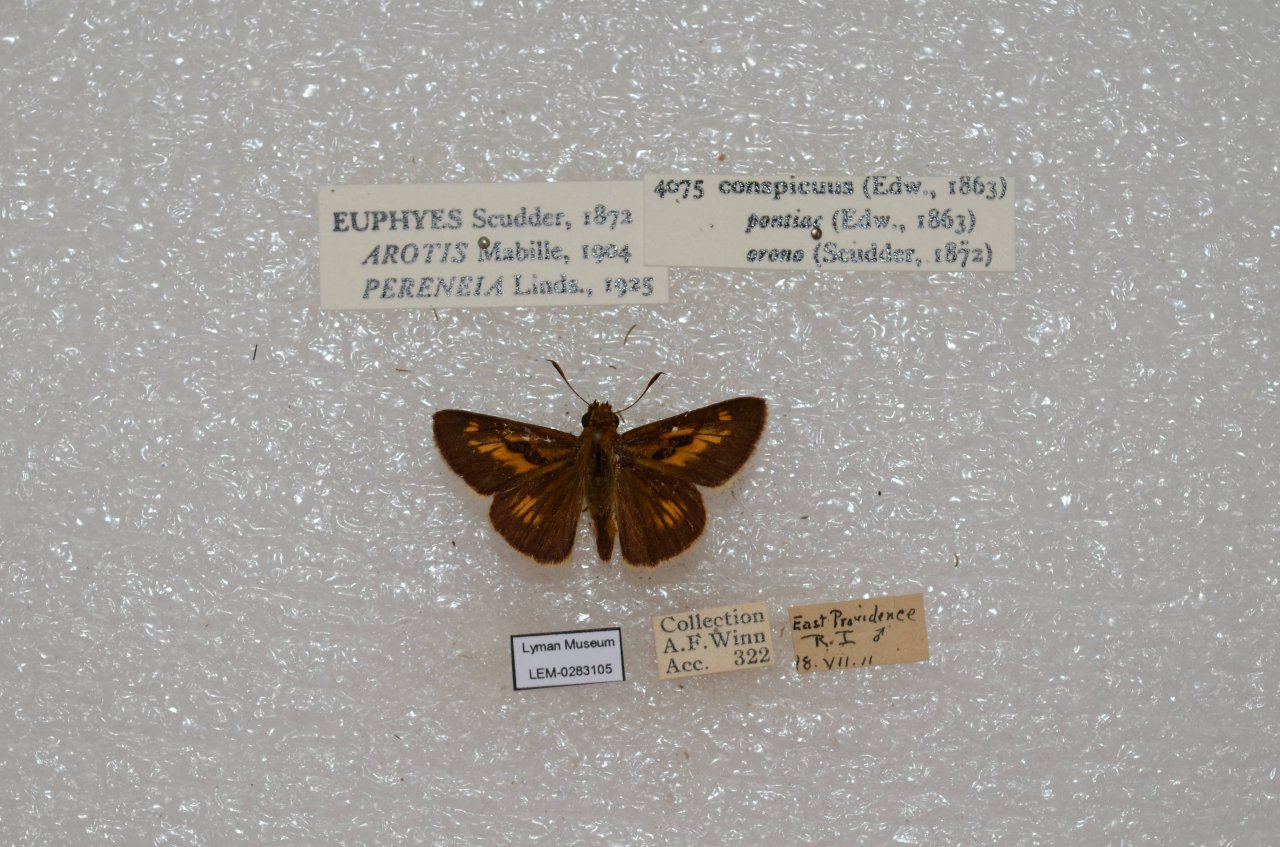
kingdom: Animalia
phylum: Arthropoda
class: Insecta
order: Lepidoptera
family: Hesperiidae
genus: Euphyes
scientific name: Euphyes conspicua
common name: Black Dash
